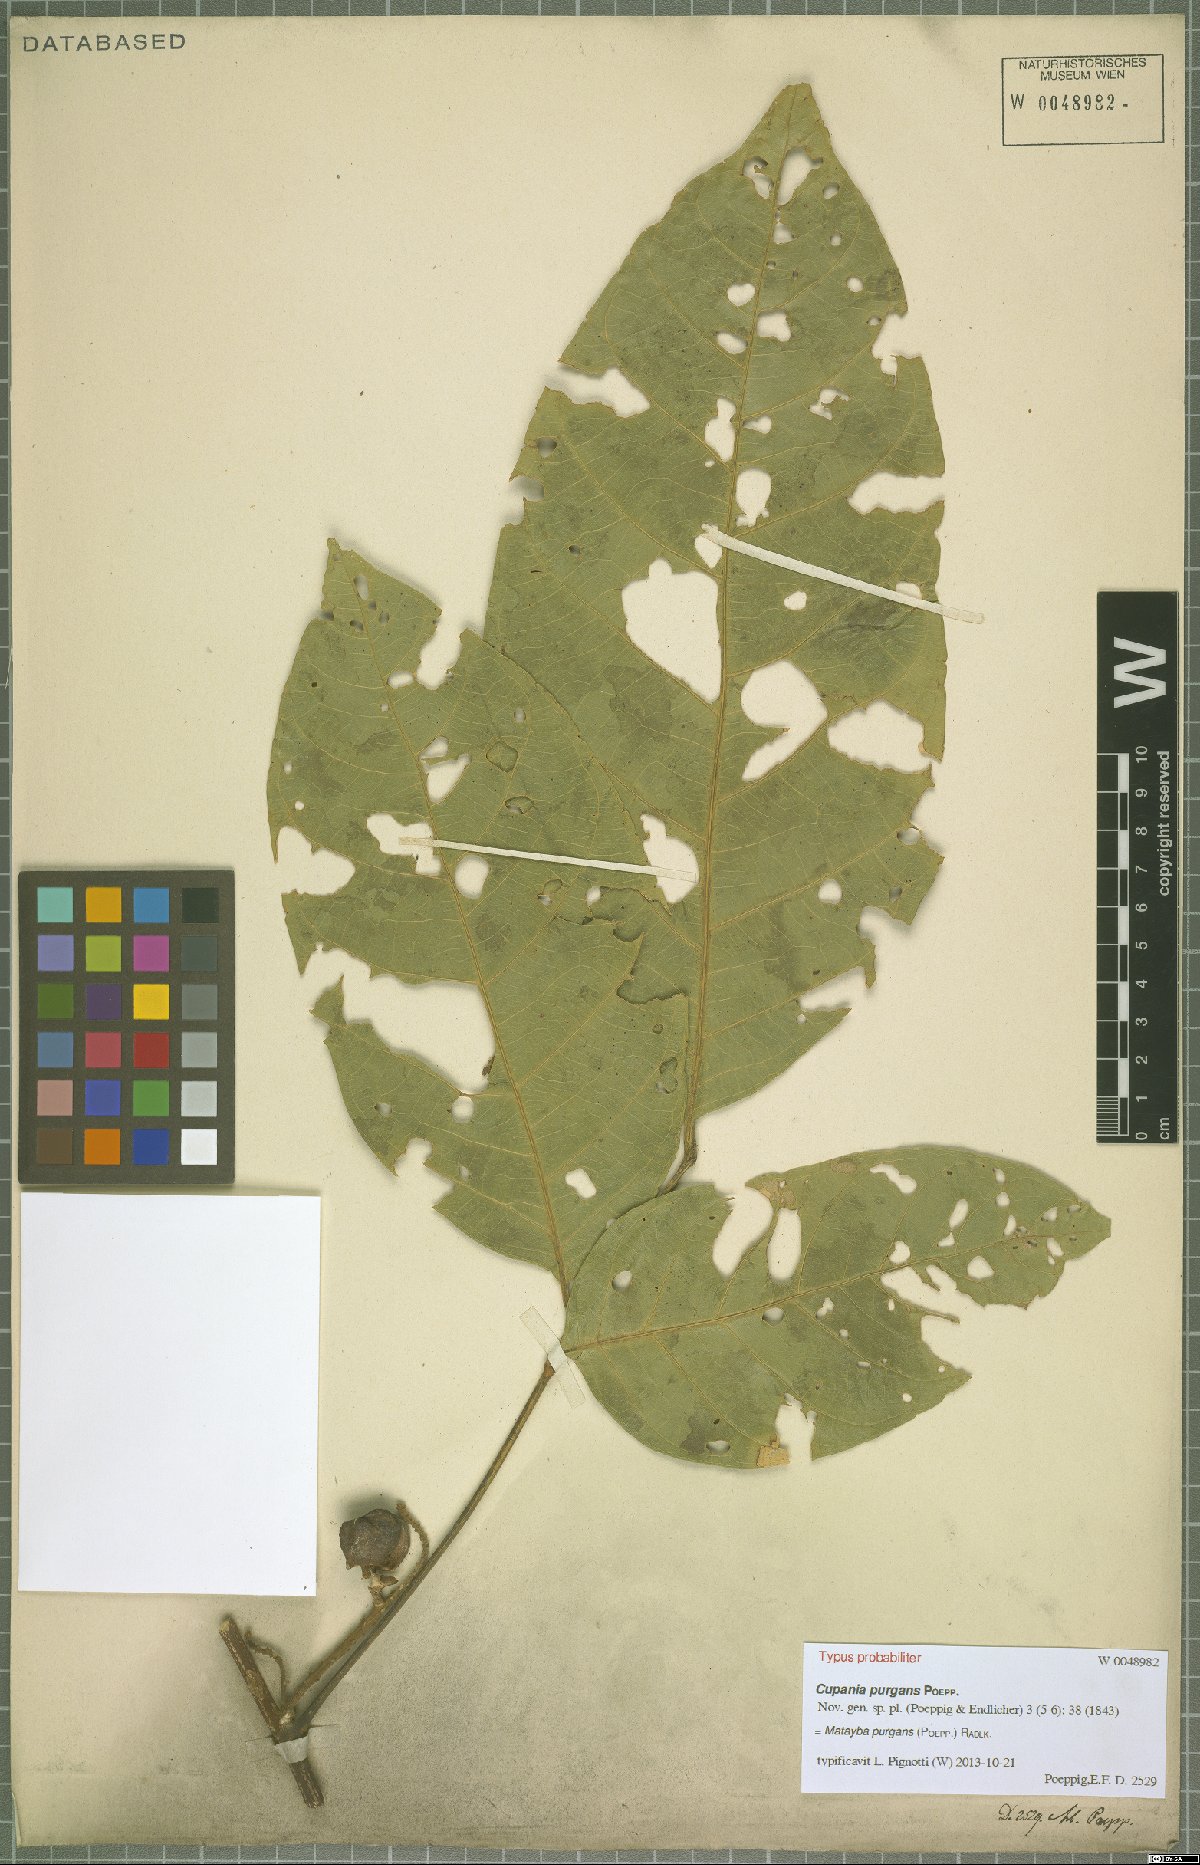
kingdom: Plantae
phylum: Tracheophyta
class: Magnoliopsida
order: Sapindales
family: Sapindaceae
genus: Matayba
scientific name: Matayba purgans
